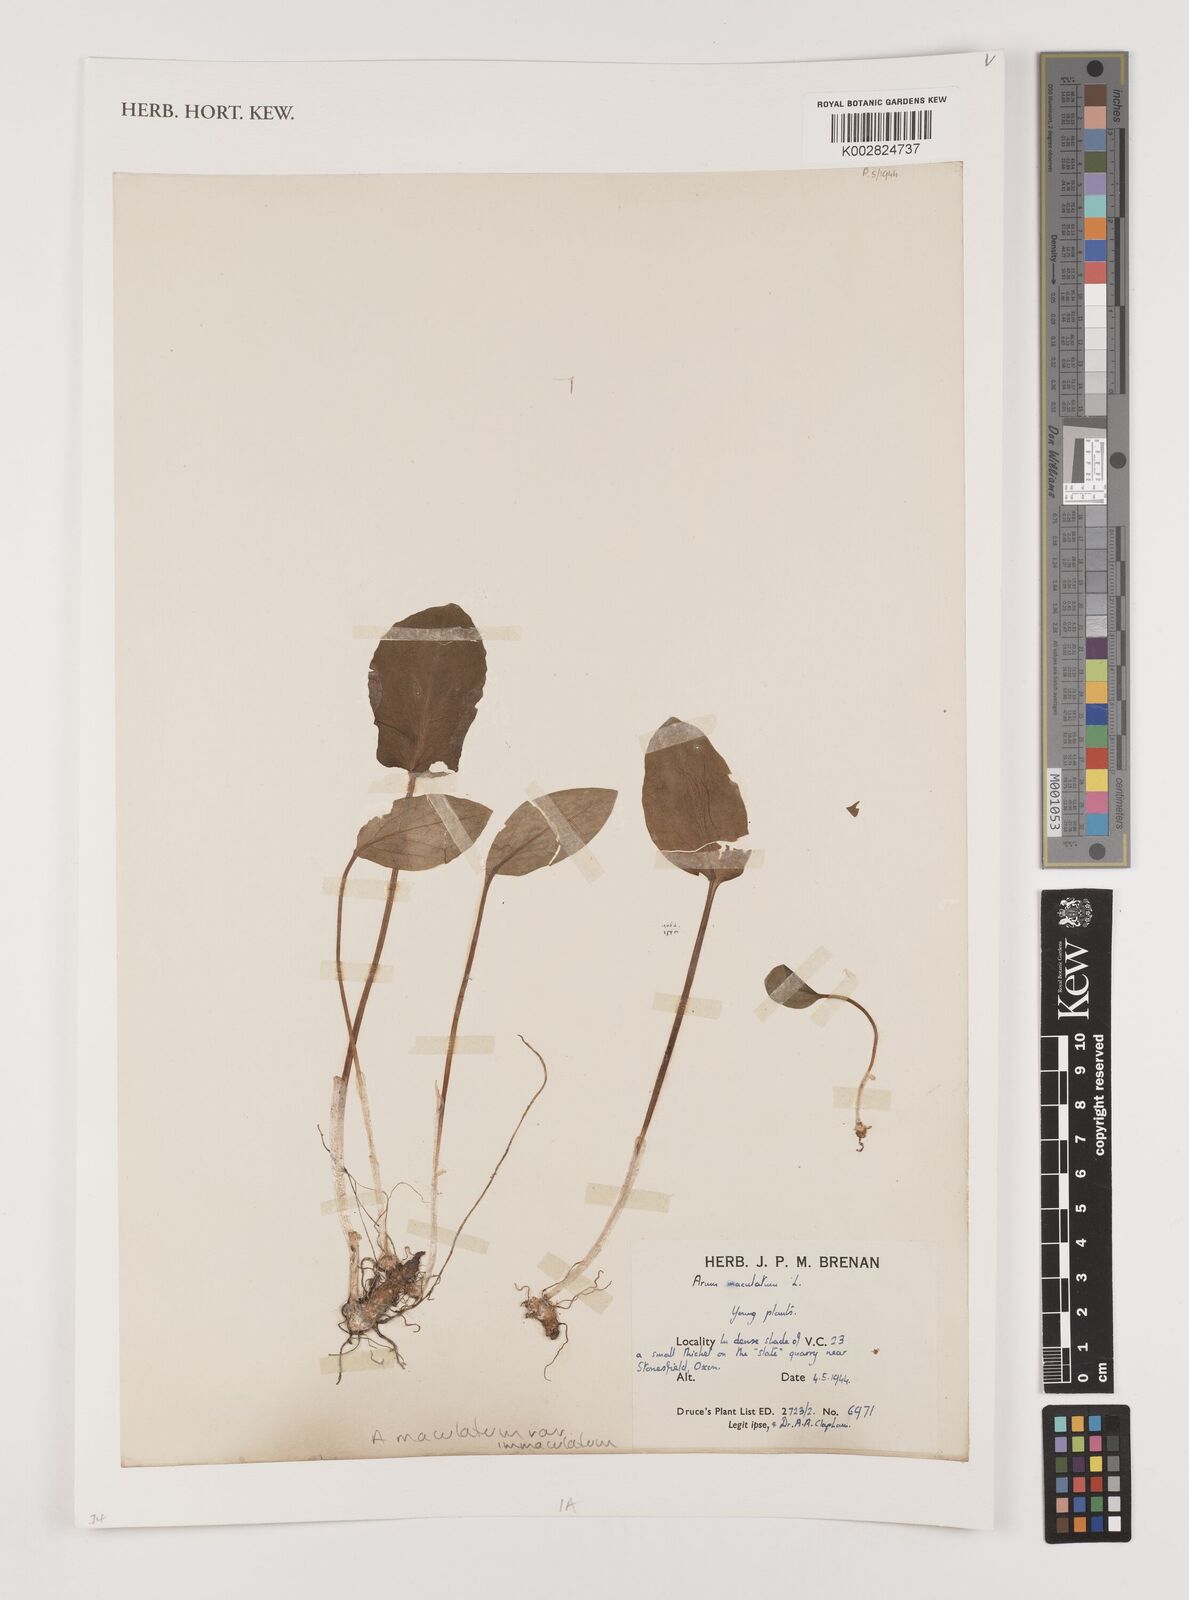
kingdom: Plantae
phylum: Tracheophyta
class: Liliopsida
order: Alismatales
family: Araceae
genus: Arum
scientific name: Arum maculatum
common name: Lords-and-ladies
